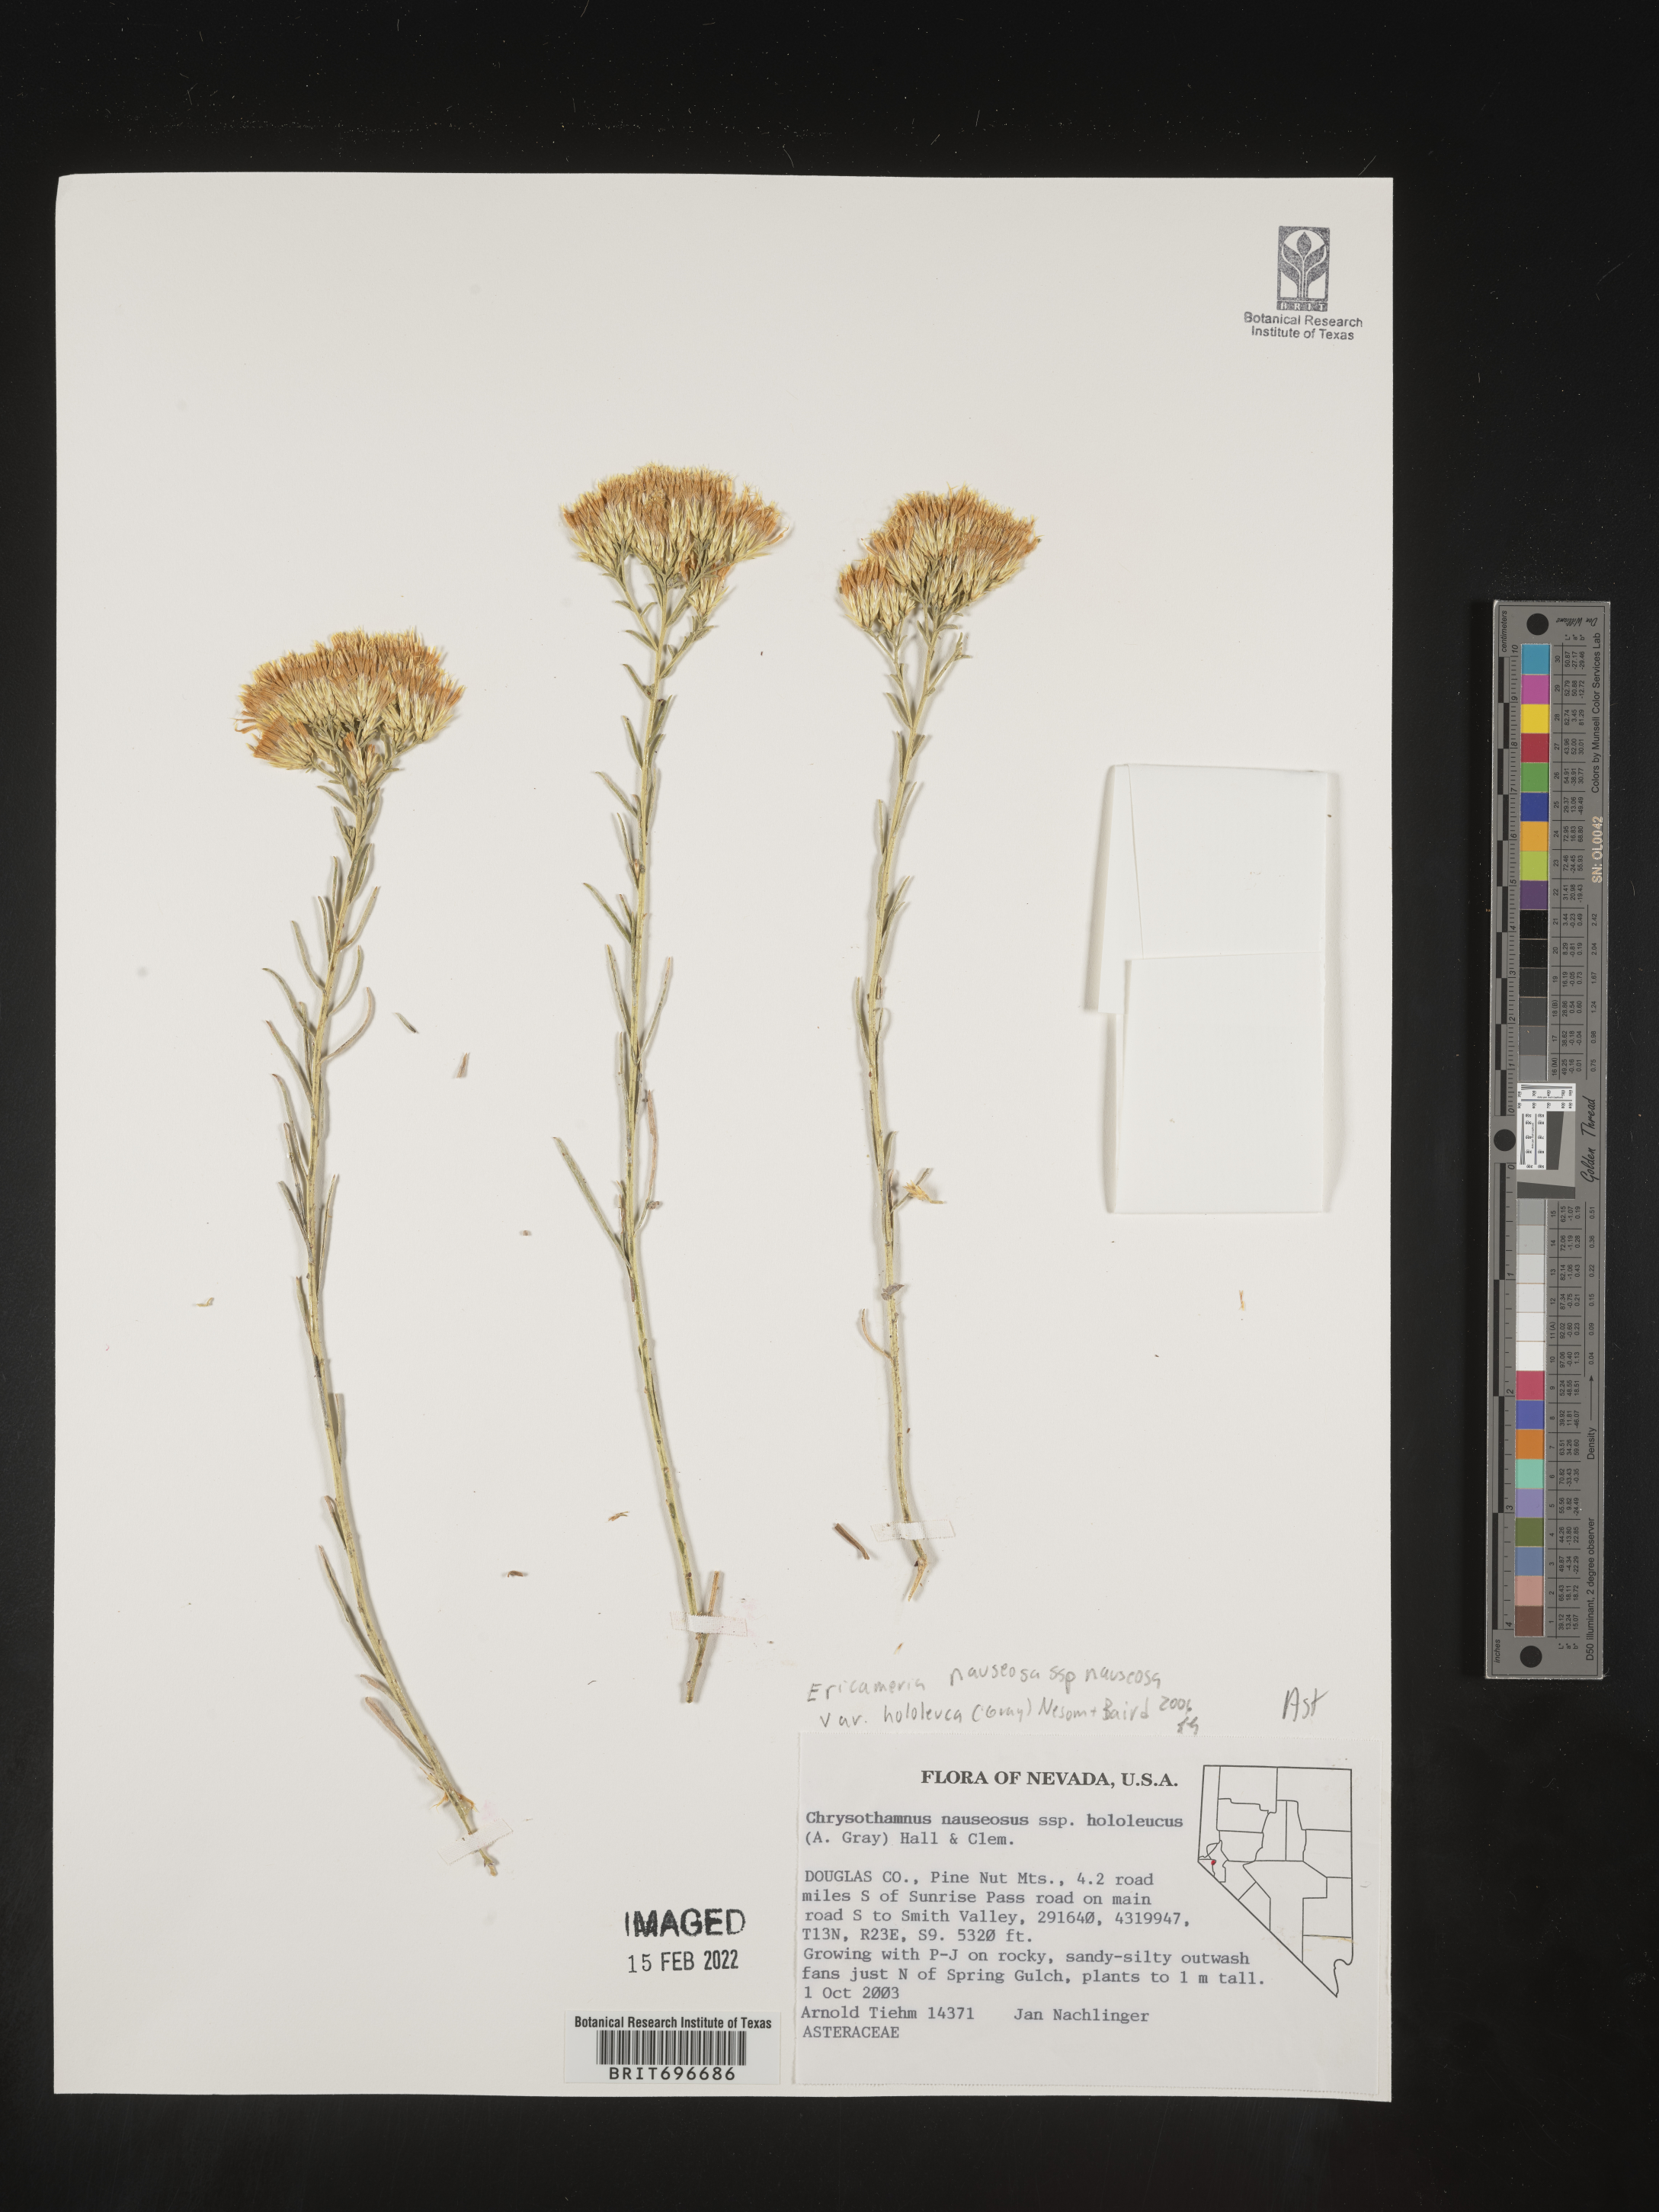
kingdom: Plantae
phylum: Tracheophyta
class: Magnoliopsida
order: Asterales
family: Asteraceae
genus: Ericameria
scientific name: Ericameria nauseosa
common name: Rubber rabbitbrush
